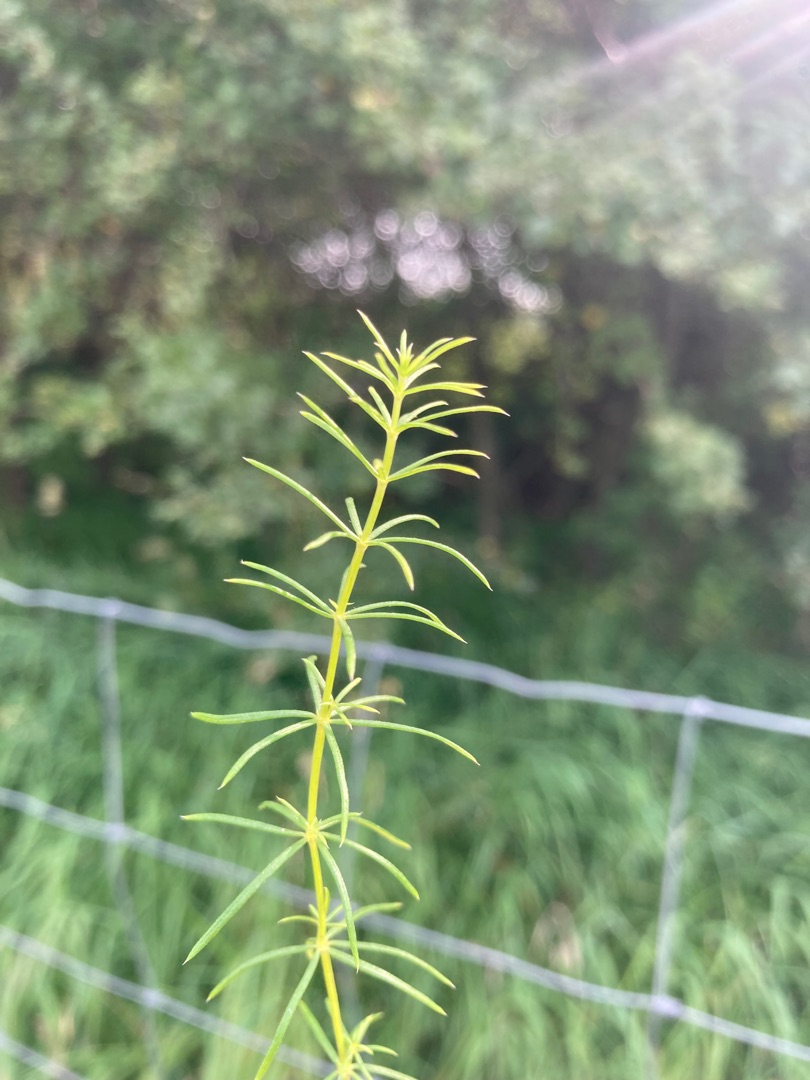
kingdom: Plantae
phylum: Tracheophyta
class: Magnoliopsida
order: Gentianales
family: Rubiaceae
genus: Galium
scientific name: Galium verum
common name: Gul snerre
